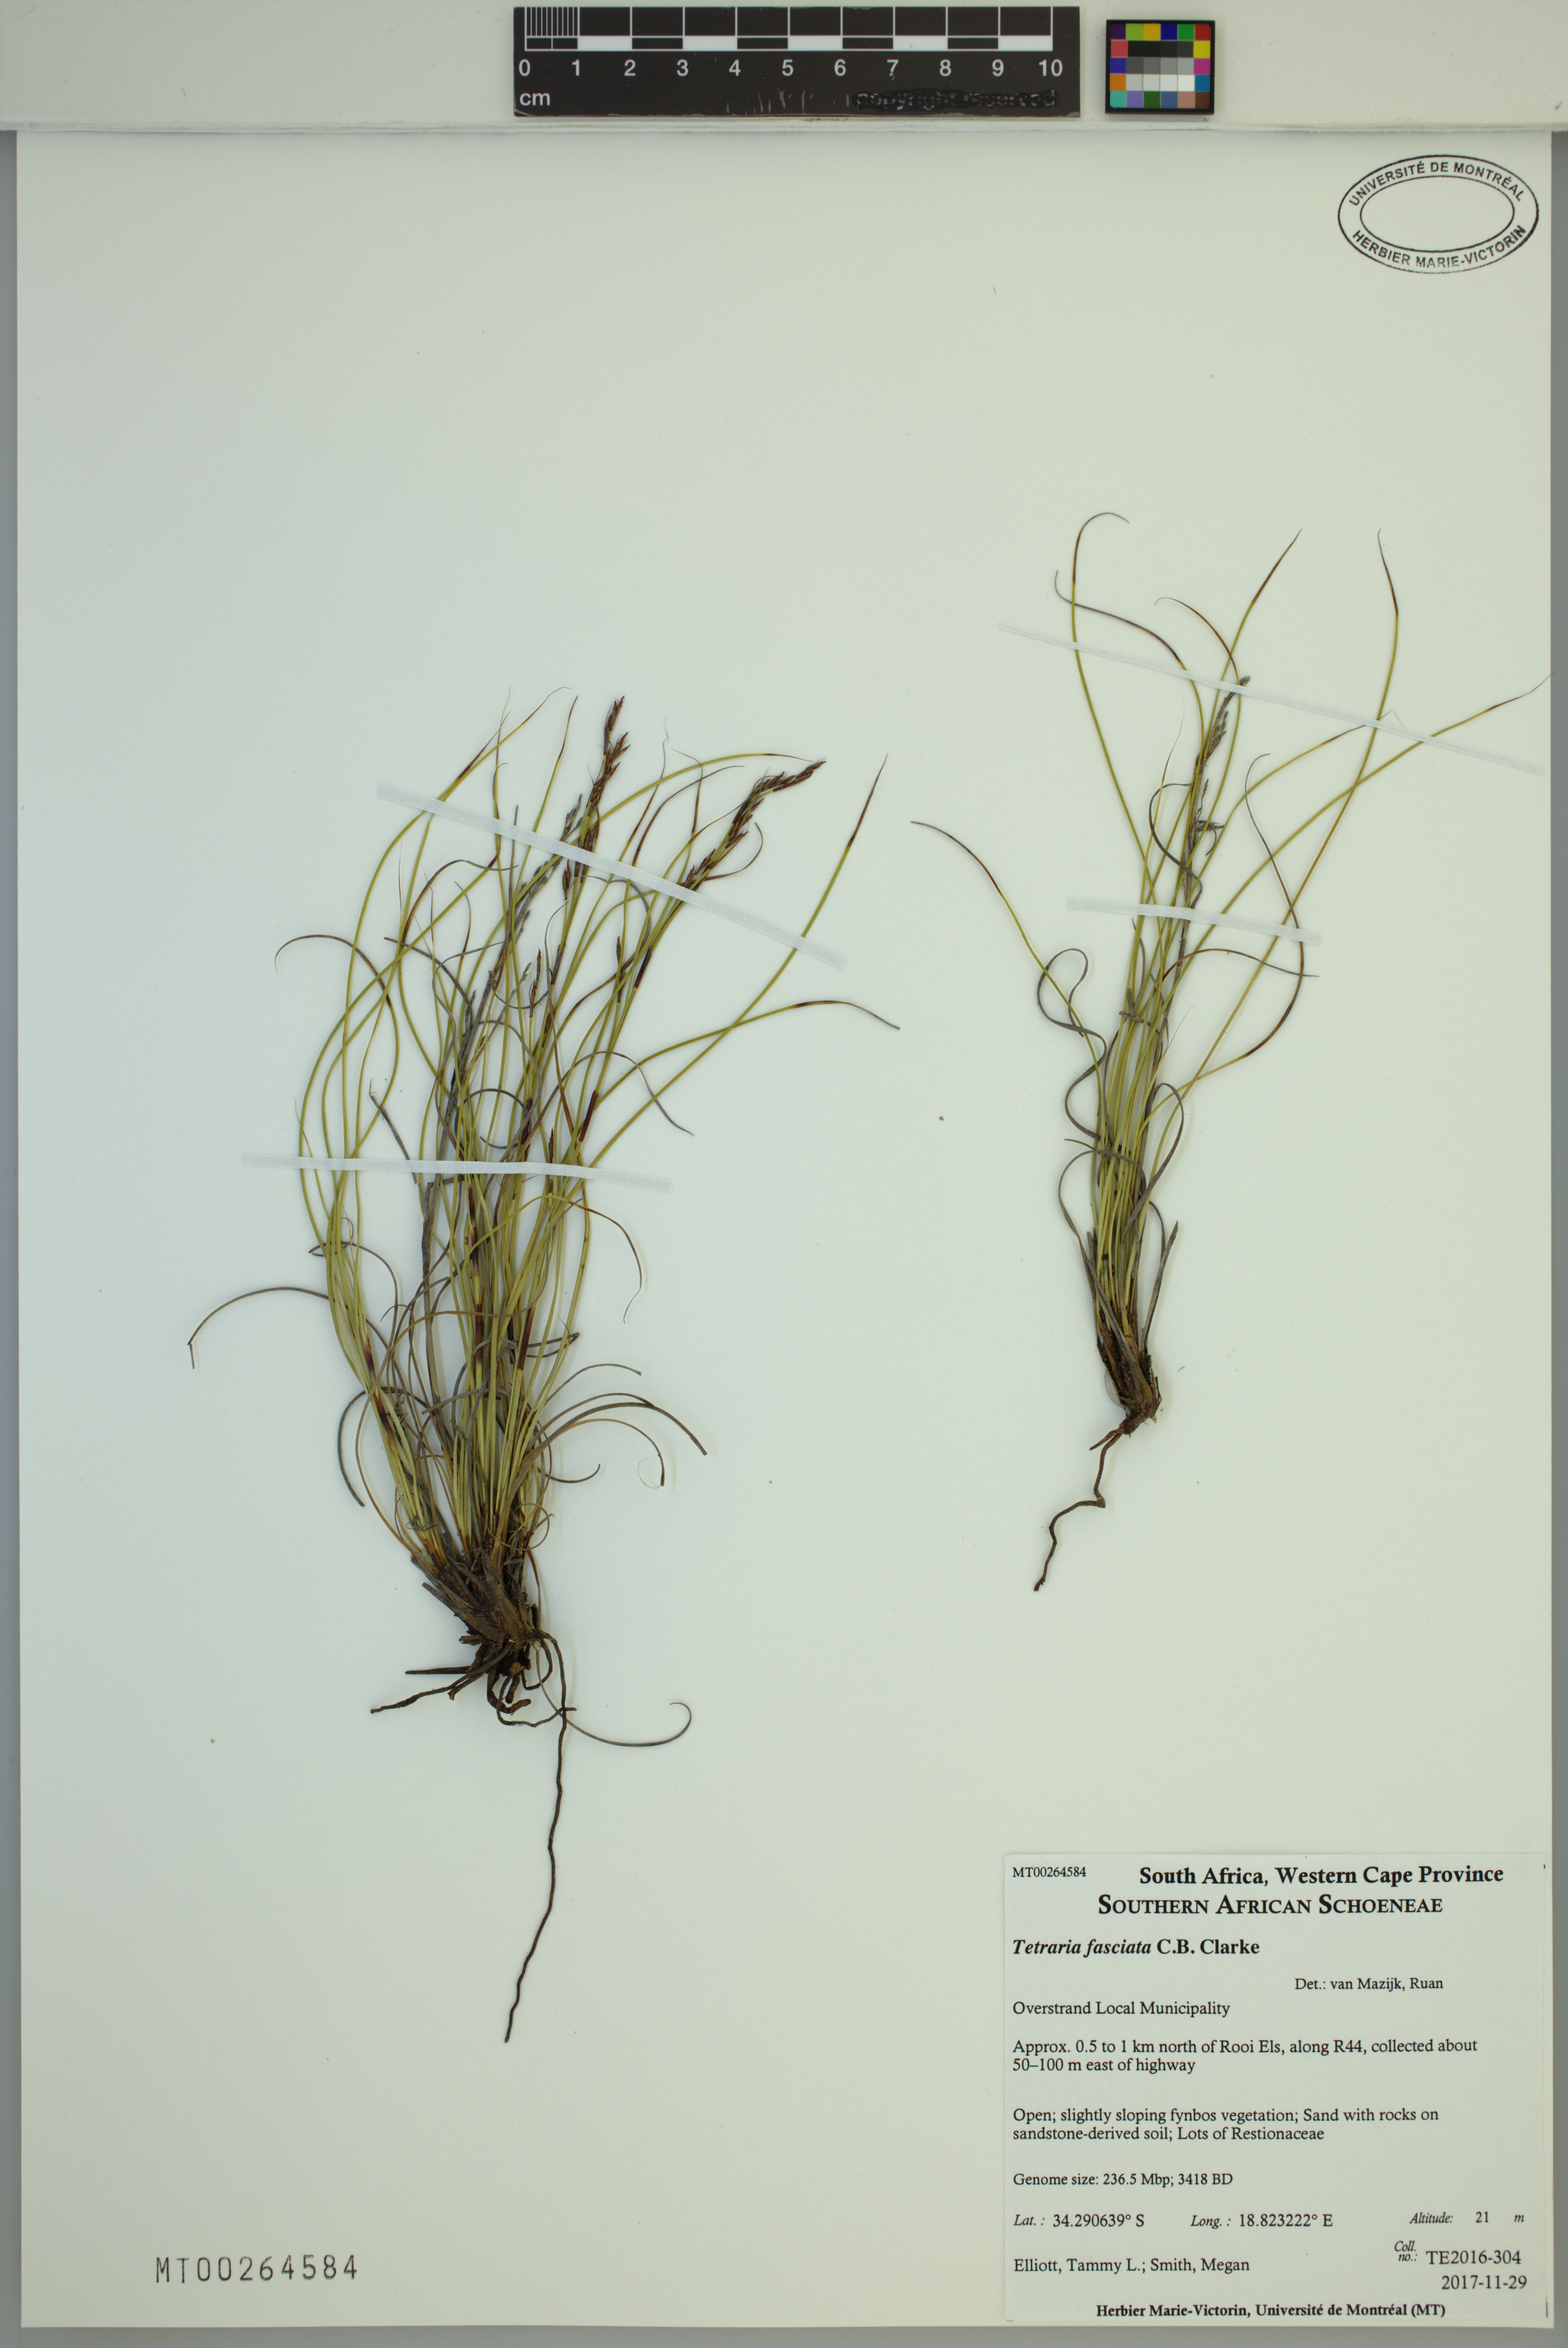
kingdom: Plantae
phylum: Tracheophyta
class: Liliopsida
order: Poales
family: Cyperaceae
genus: Tetraria
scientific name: Tetraria fasciata
